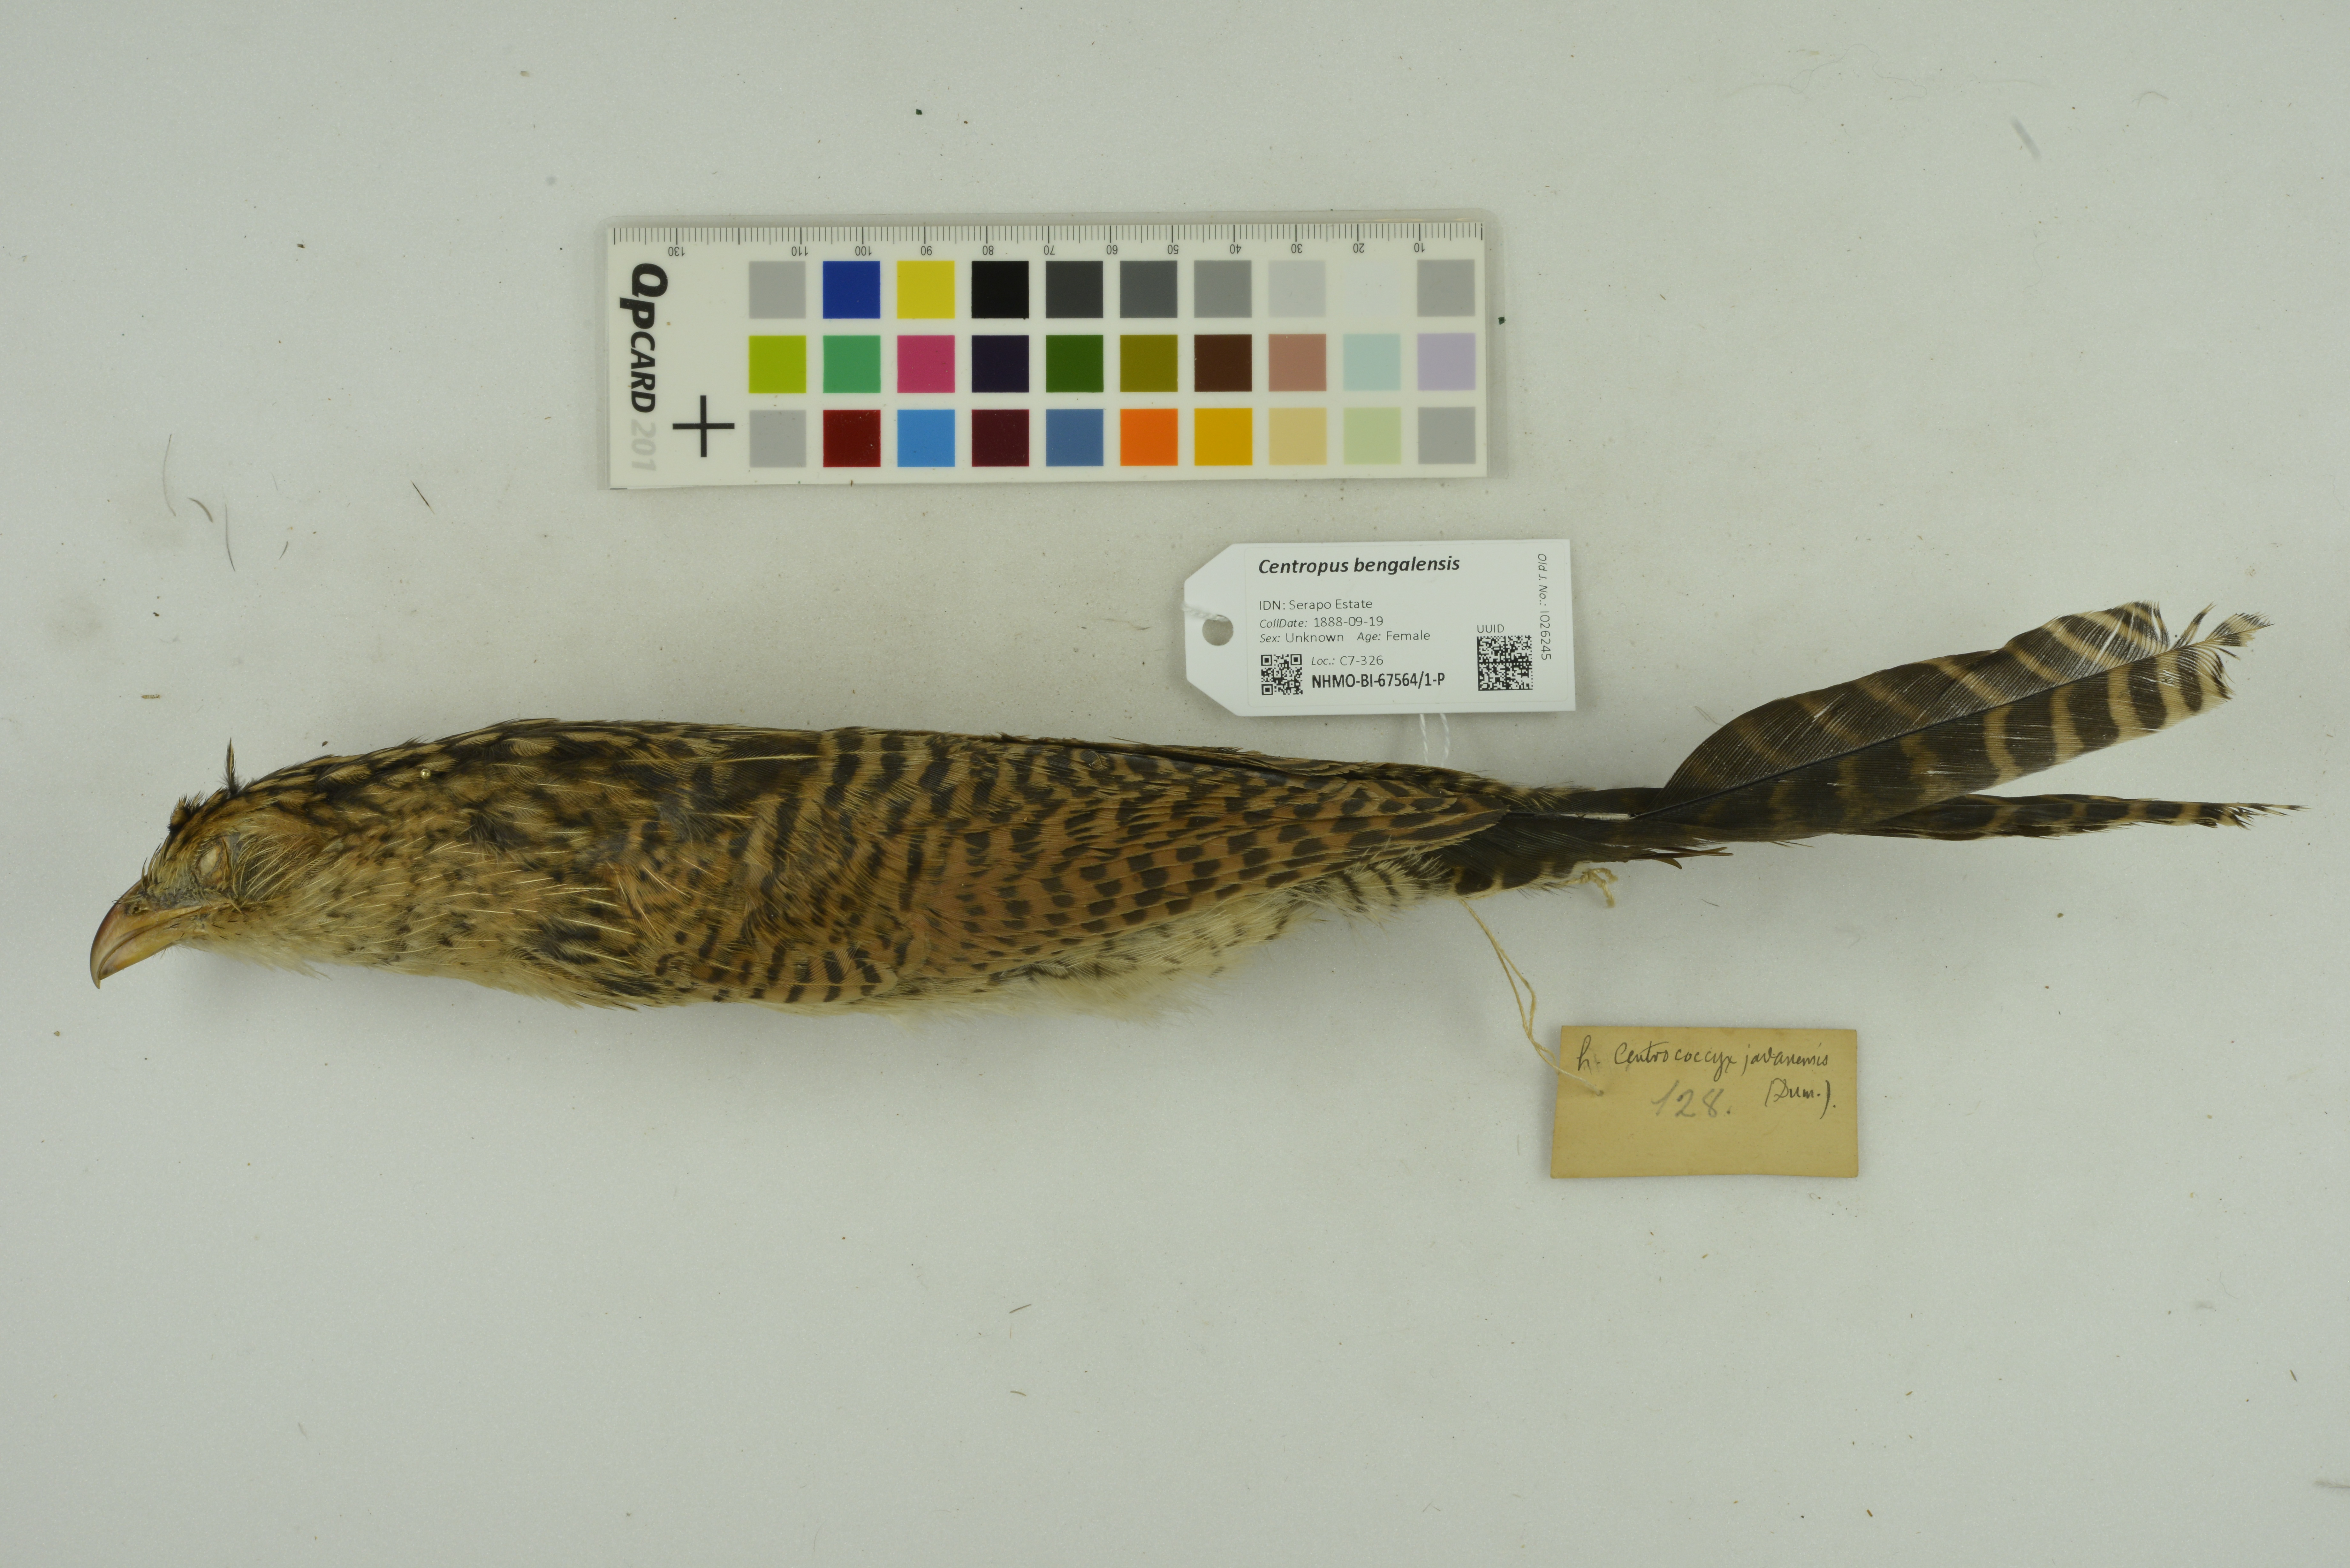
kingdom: Animalia
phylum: Chordata
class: Aves
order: Cuculiformes
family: Cuculidae
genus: Centropus
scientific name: Centropus bengalensis
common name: Lesser coucal
